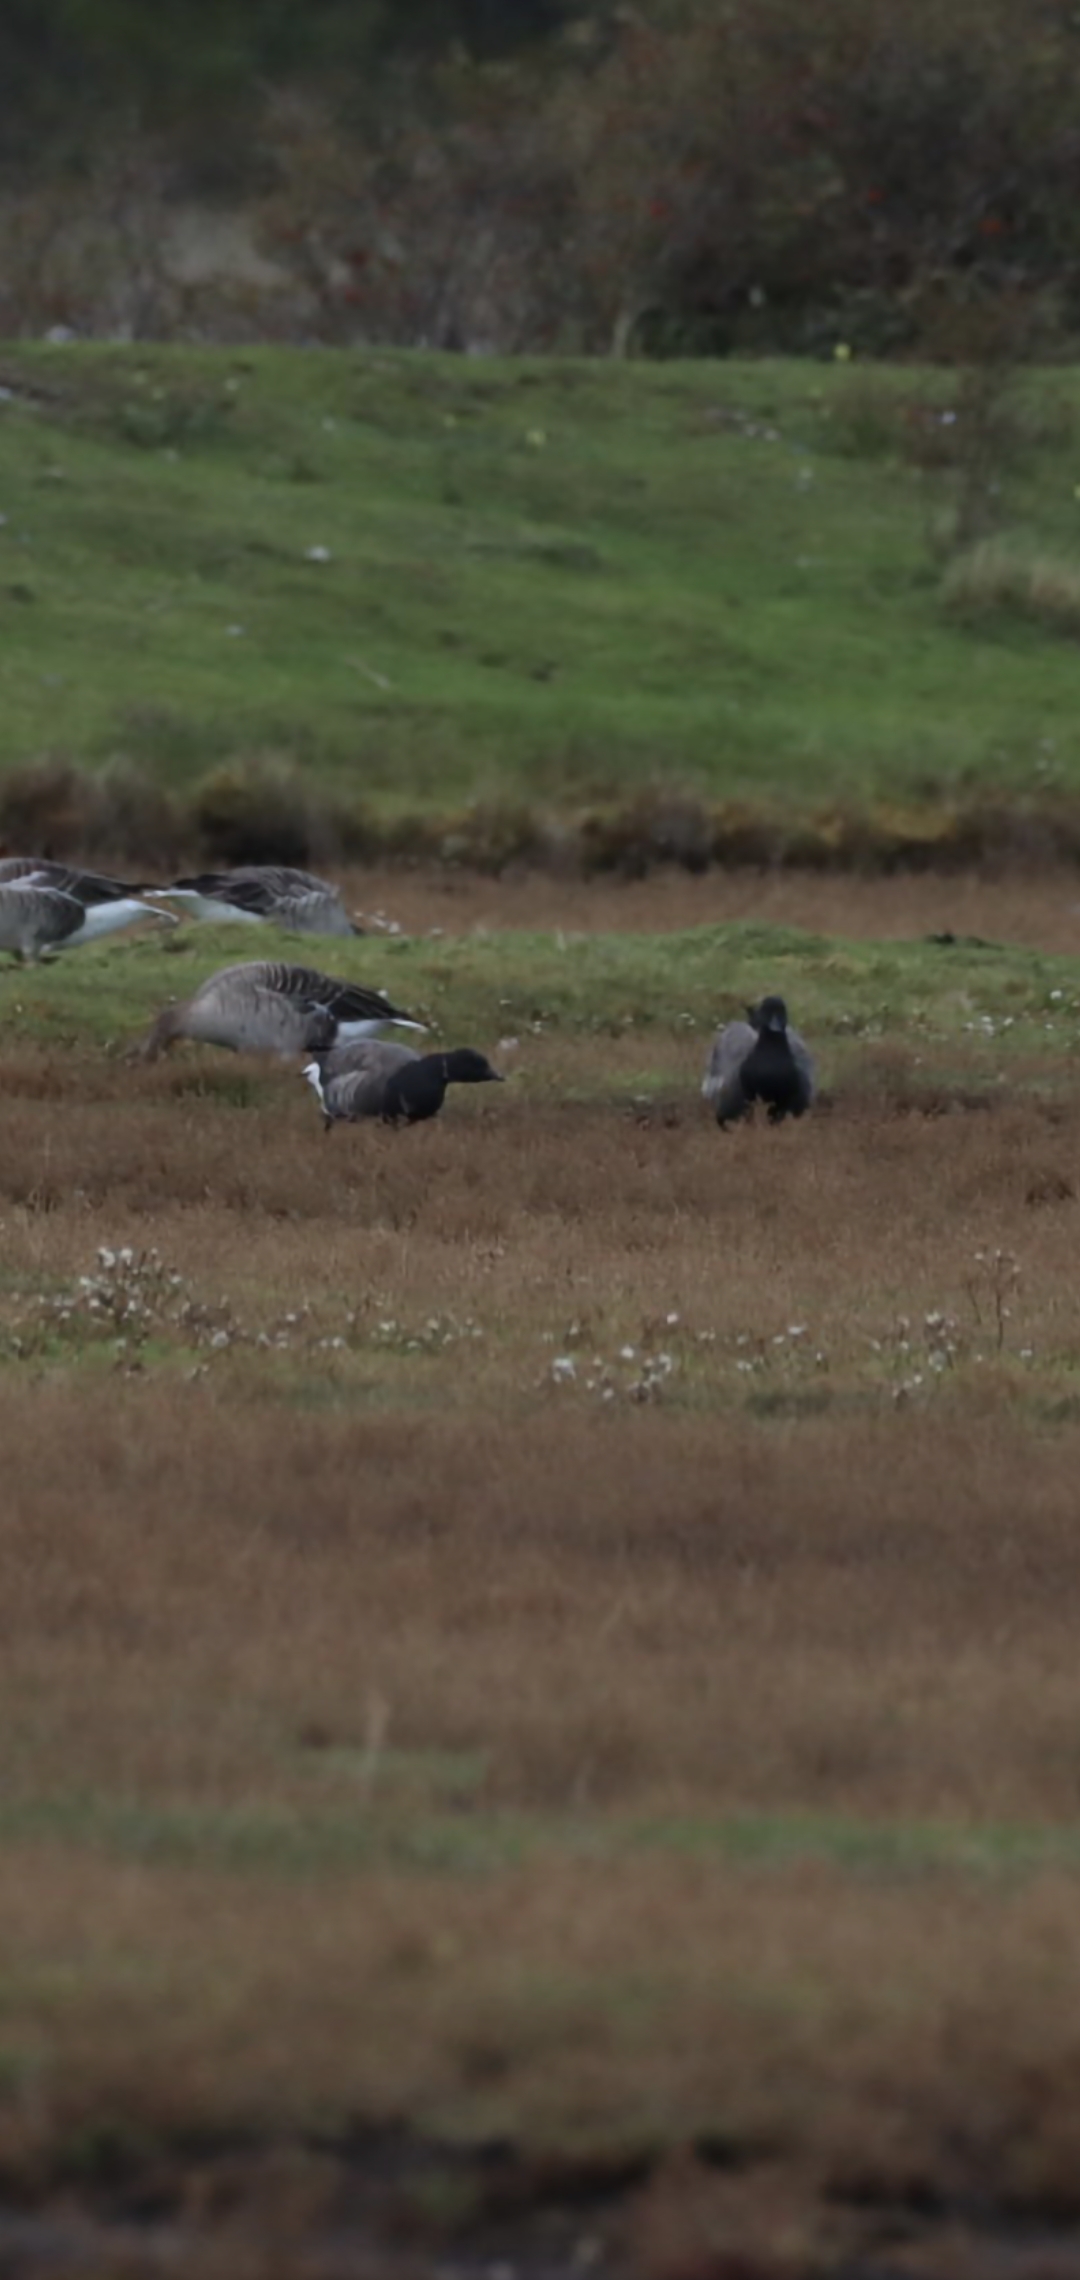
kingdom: Animalia
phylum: Chordata
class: Aves
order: Anseriformes
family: Anatidae
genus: Branta
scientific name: Branta bernicla
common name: Knortegås
